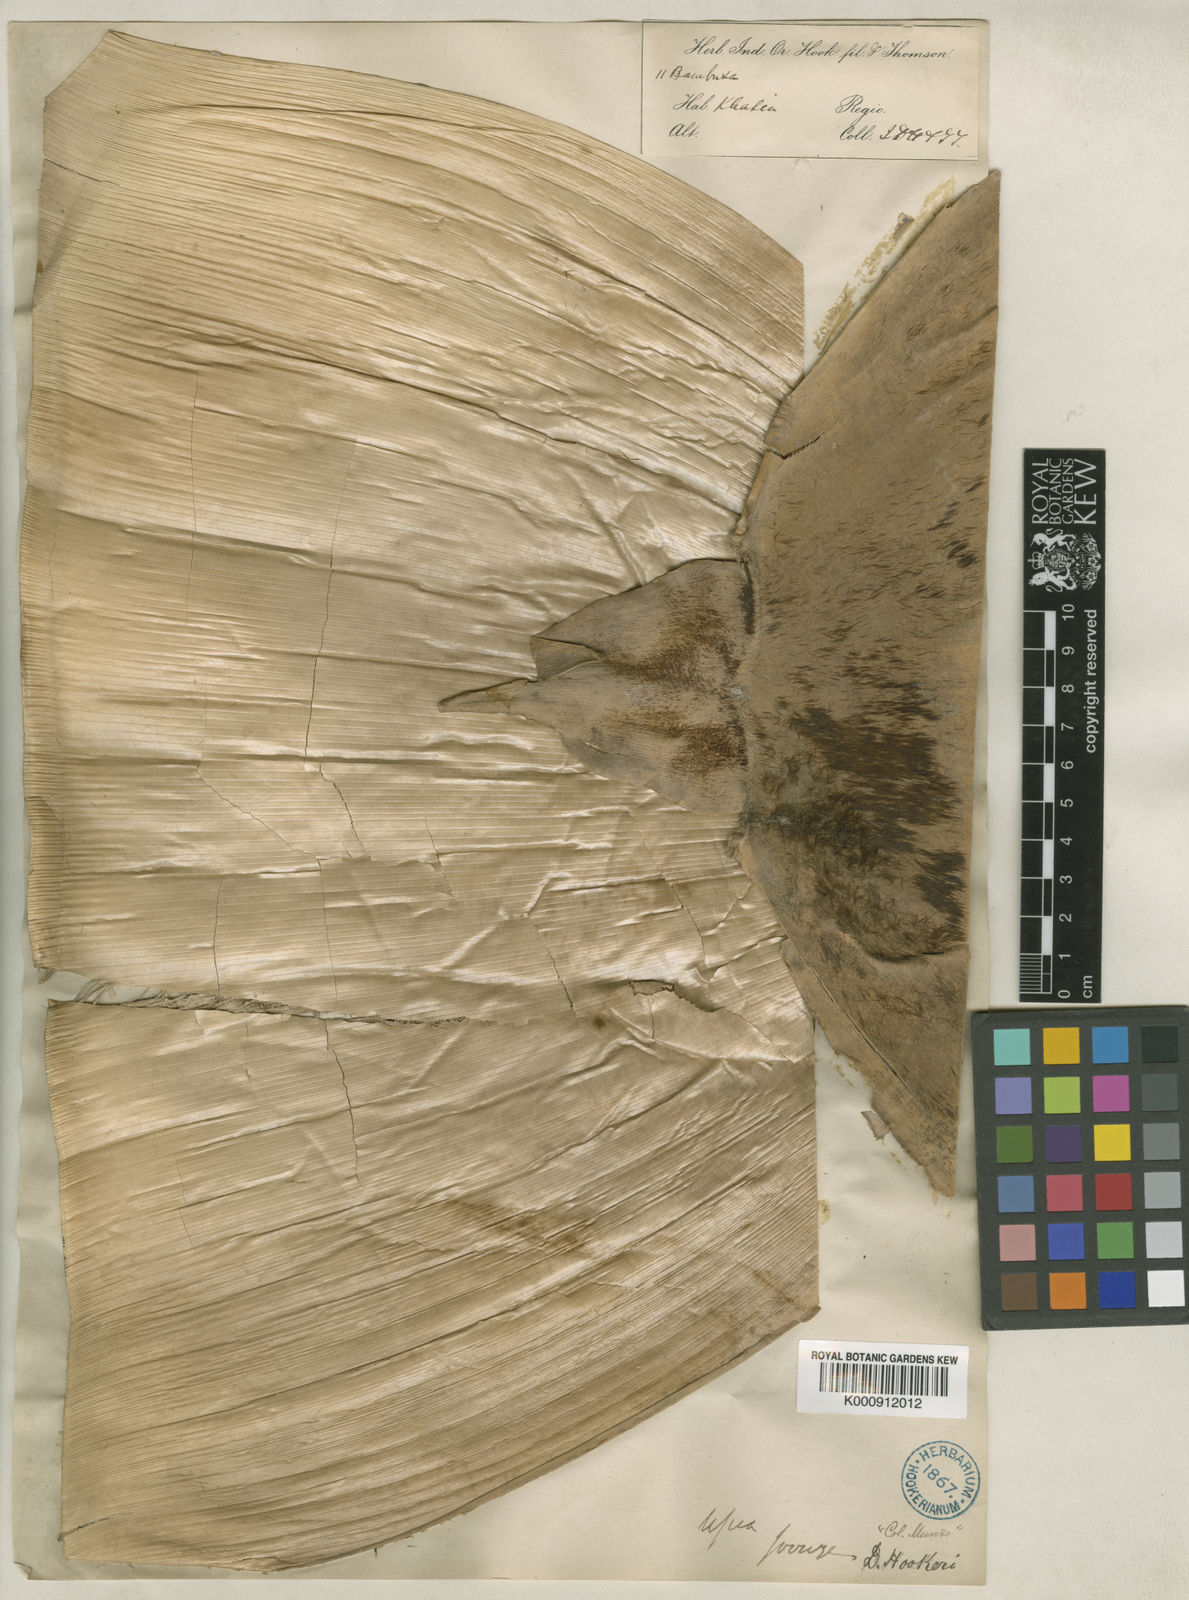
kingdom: Plantae
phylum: Tracheophyta
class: Liliopsida
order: Poales
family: Poaceae
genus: Dendrocalamus
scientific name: Dendrocalamus hookeri
